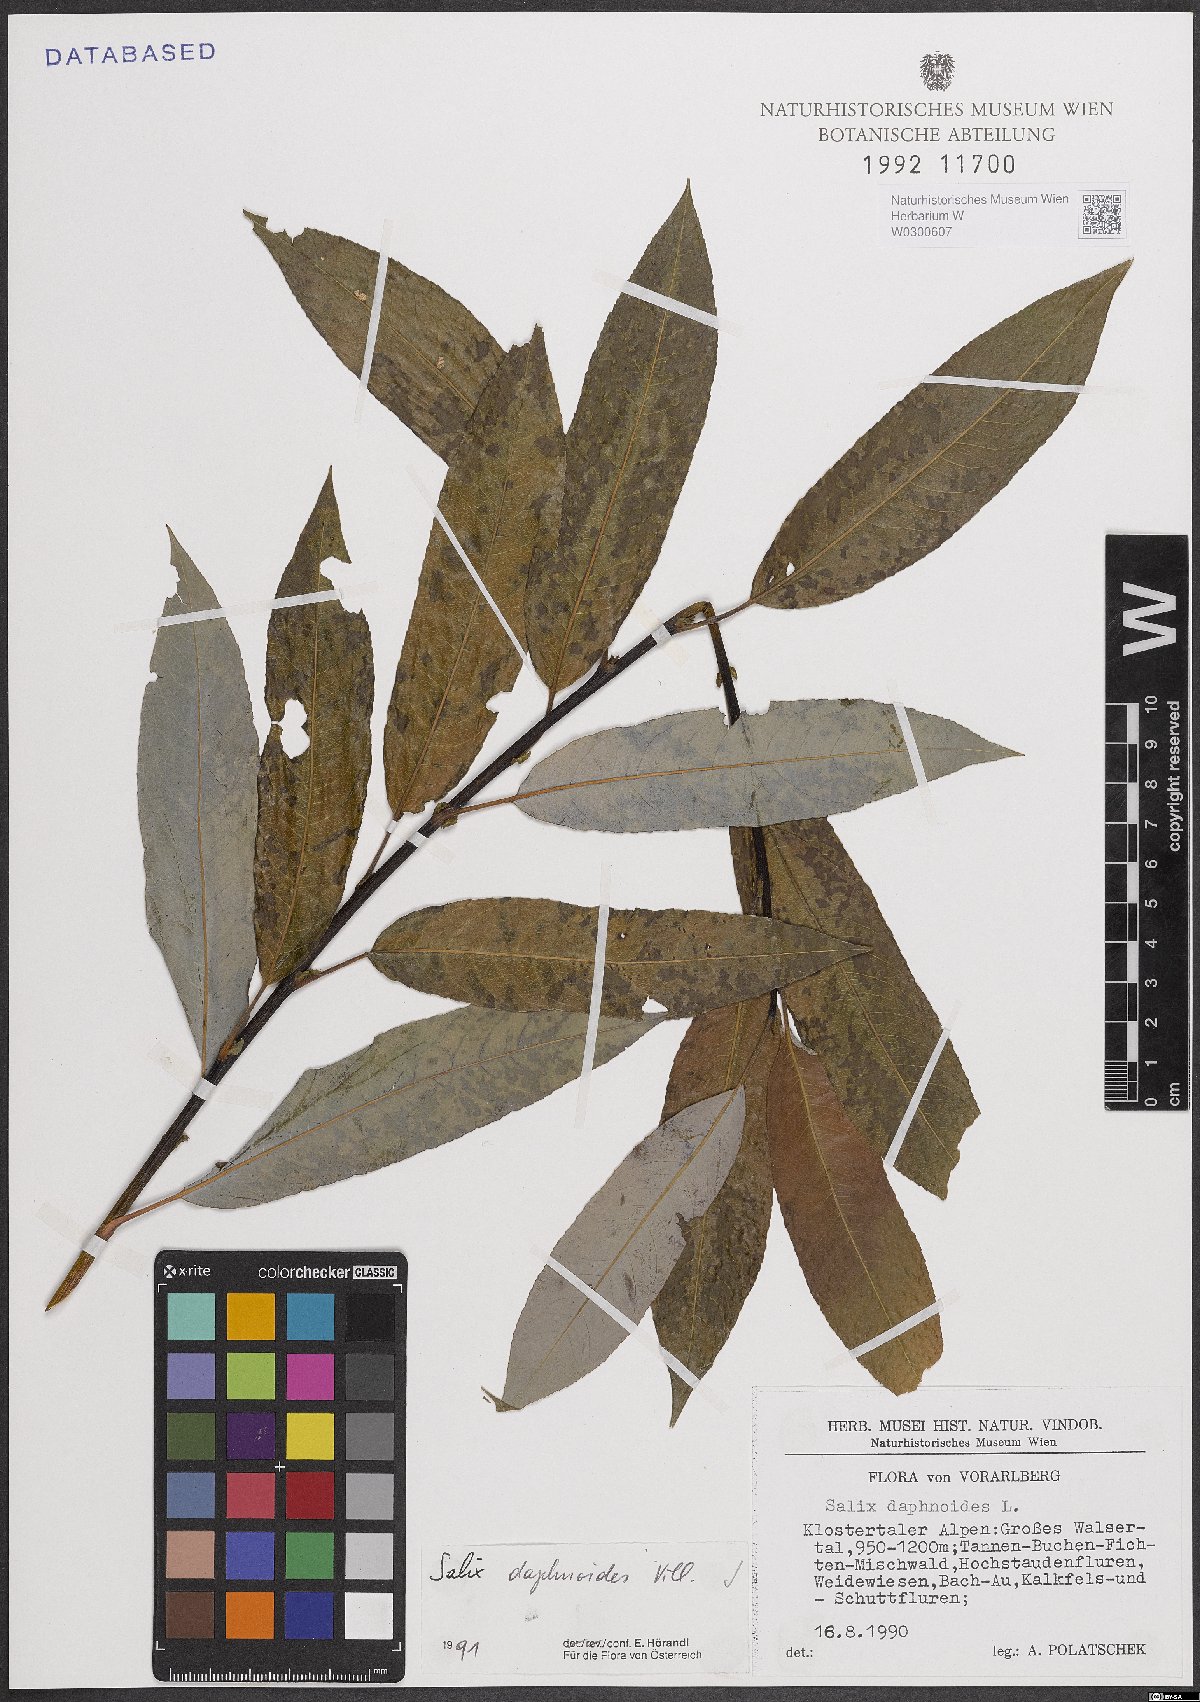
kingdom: Plantae
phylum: Tracheophyta
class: Magnoliopsida
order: Malpighiales
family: Salicaceae
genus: Salix
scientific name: Salix daphnoides
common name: European violet-willow
